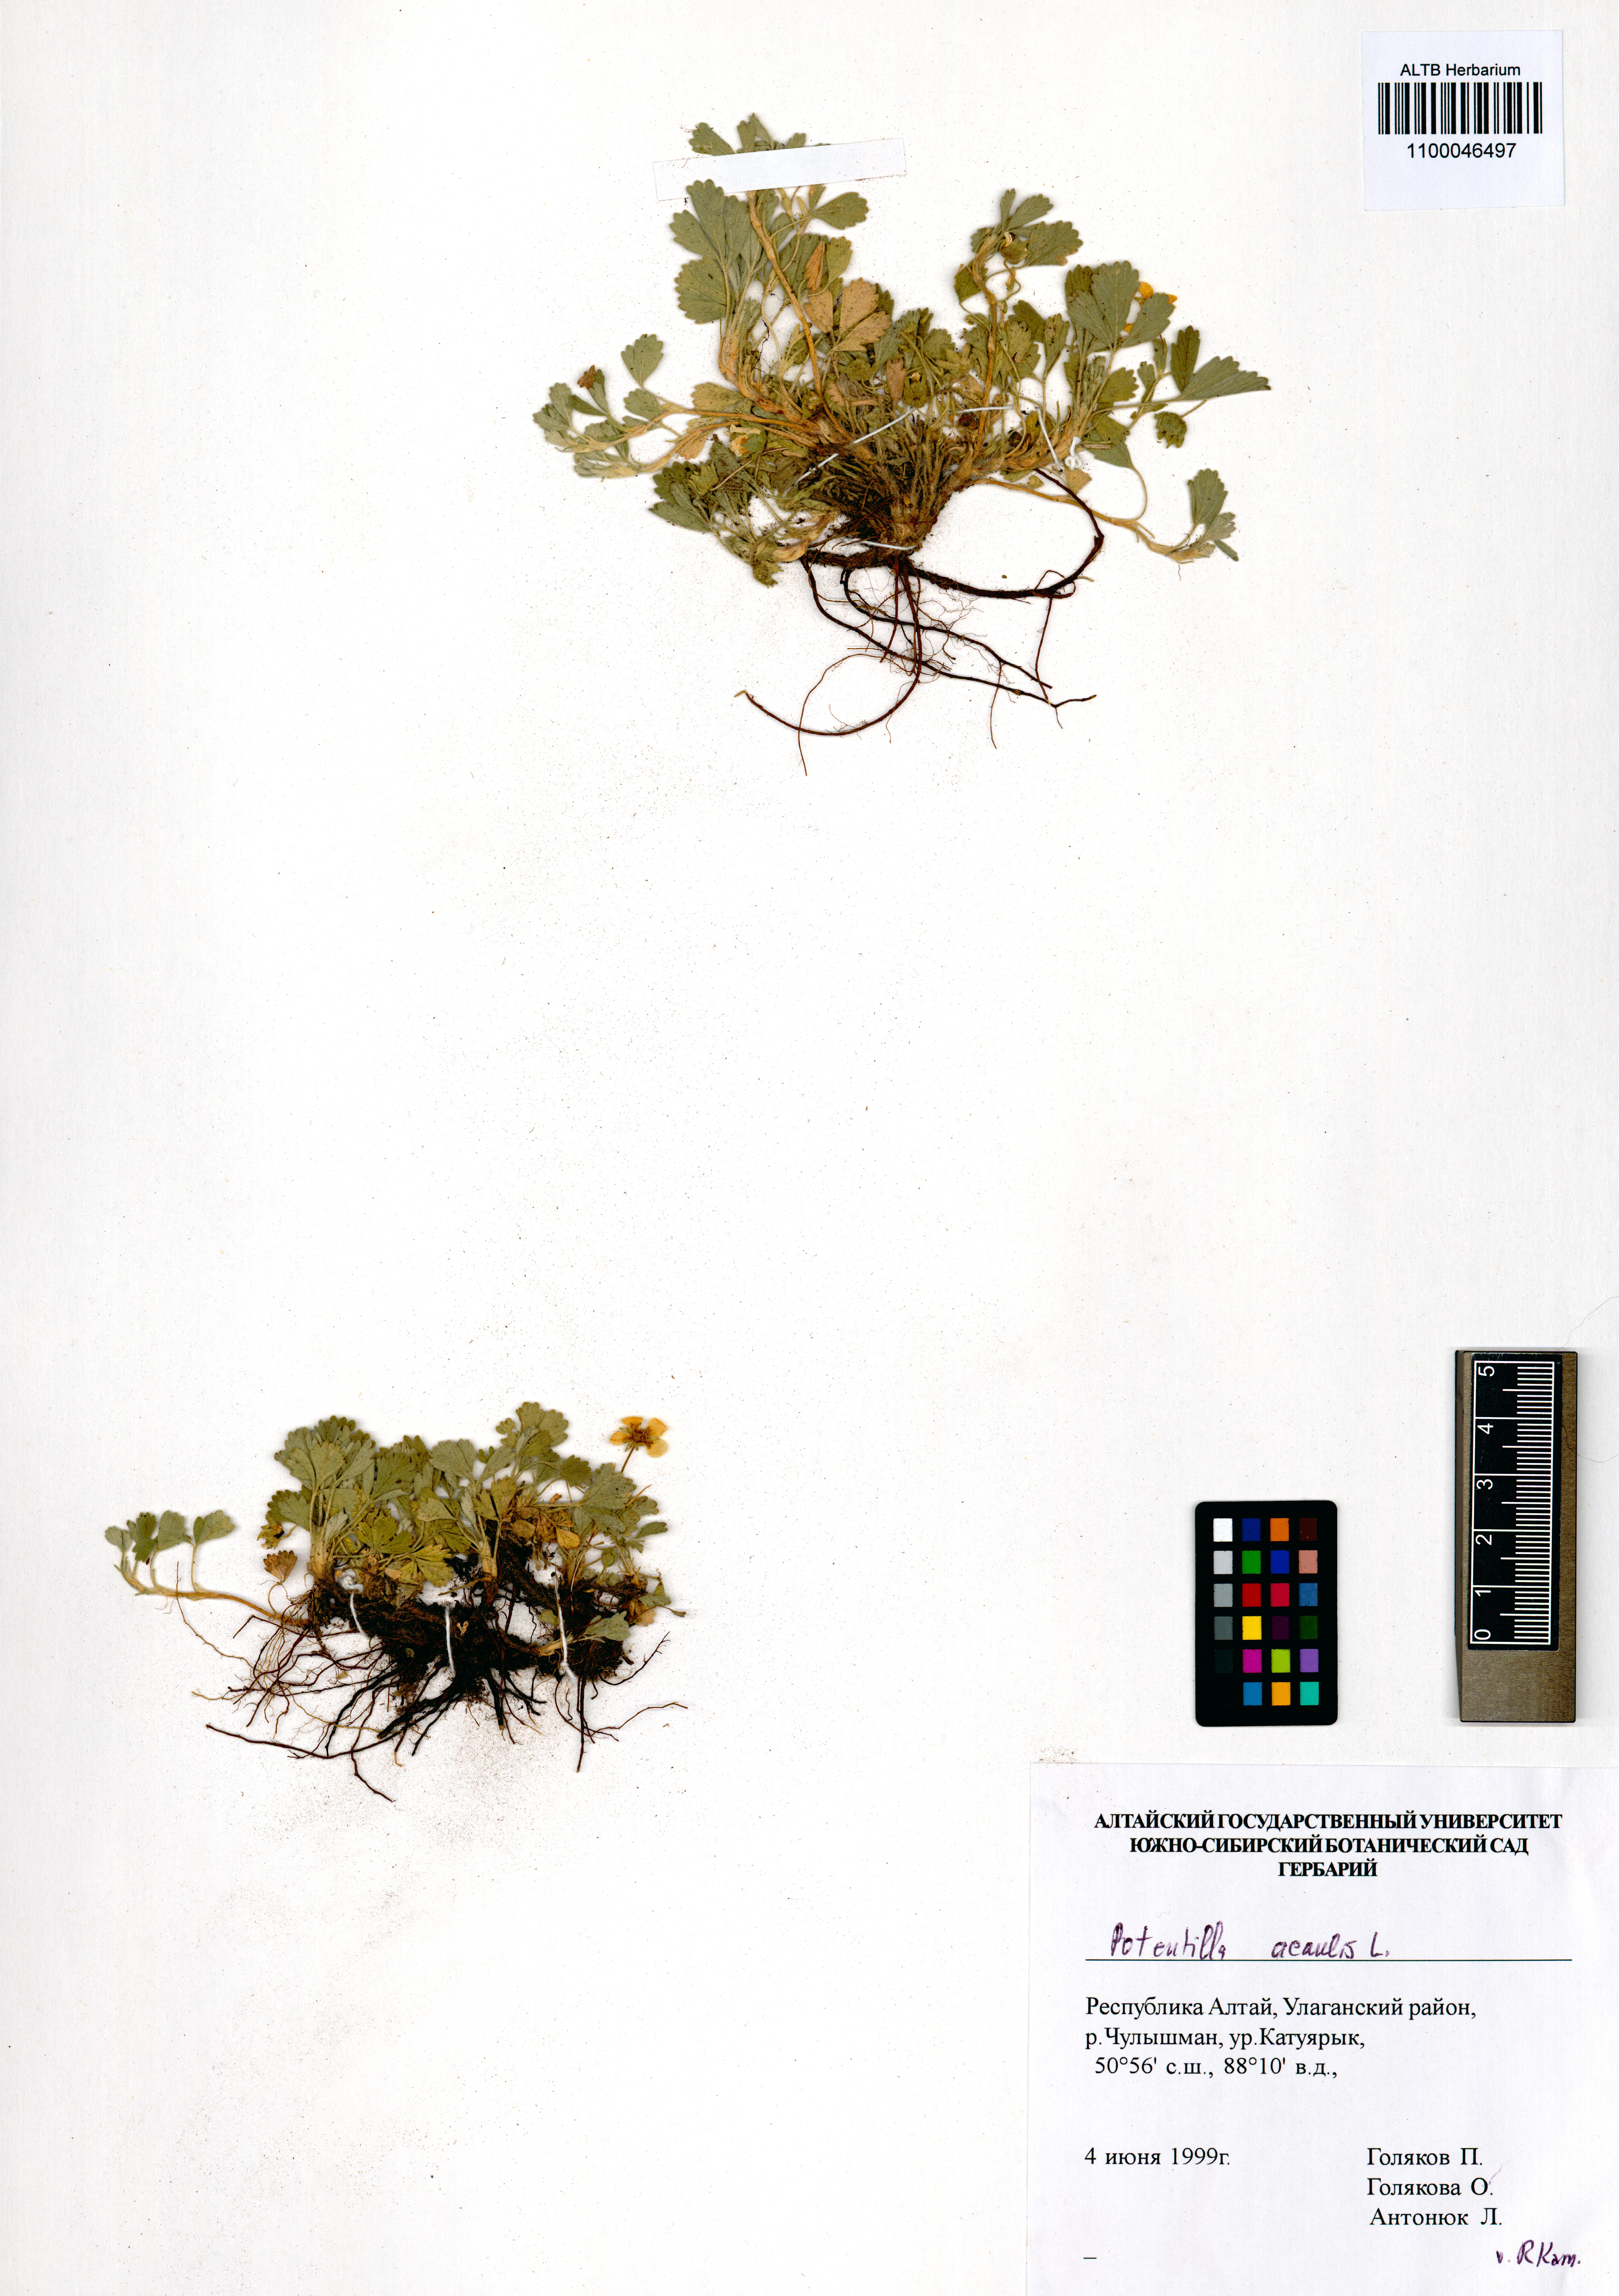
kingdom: Plantae
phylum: Tracheophyta
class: Magnoliopsida
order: Rosales
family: Rosaceae
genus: Potentilla
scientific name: Potentilla acaulis
